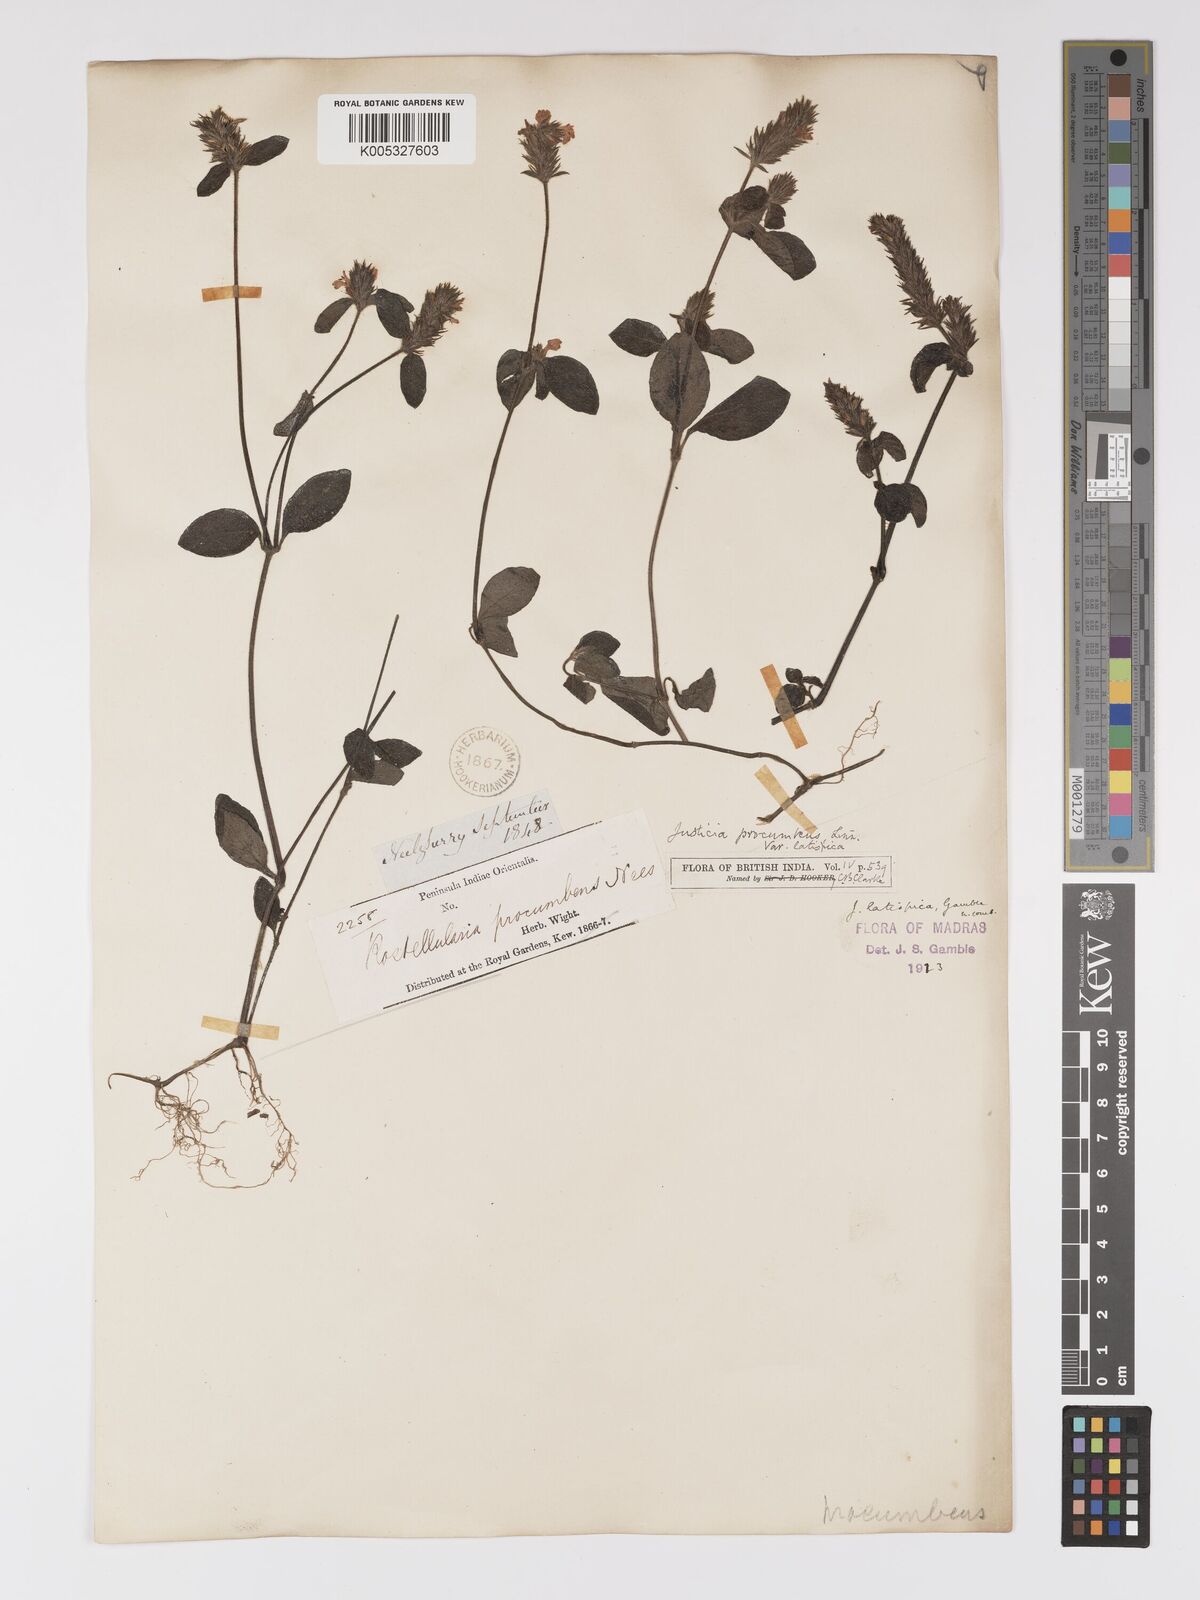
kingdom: Plantae
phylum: Tracheophyta
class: Magnoliopsida
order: Lamiales
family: Acanthaceae
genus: Rostellularia
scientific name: Rostellularia latispica
